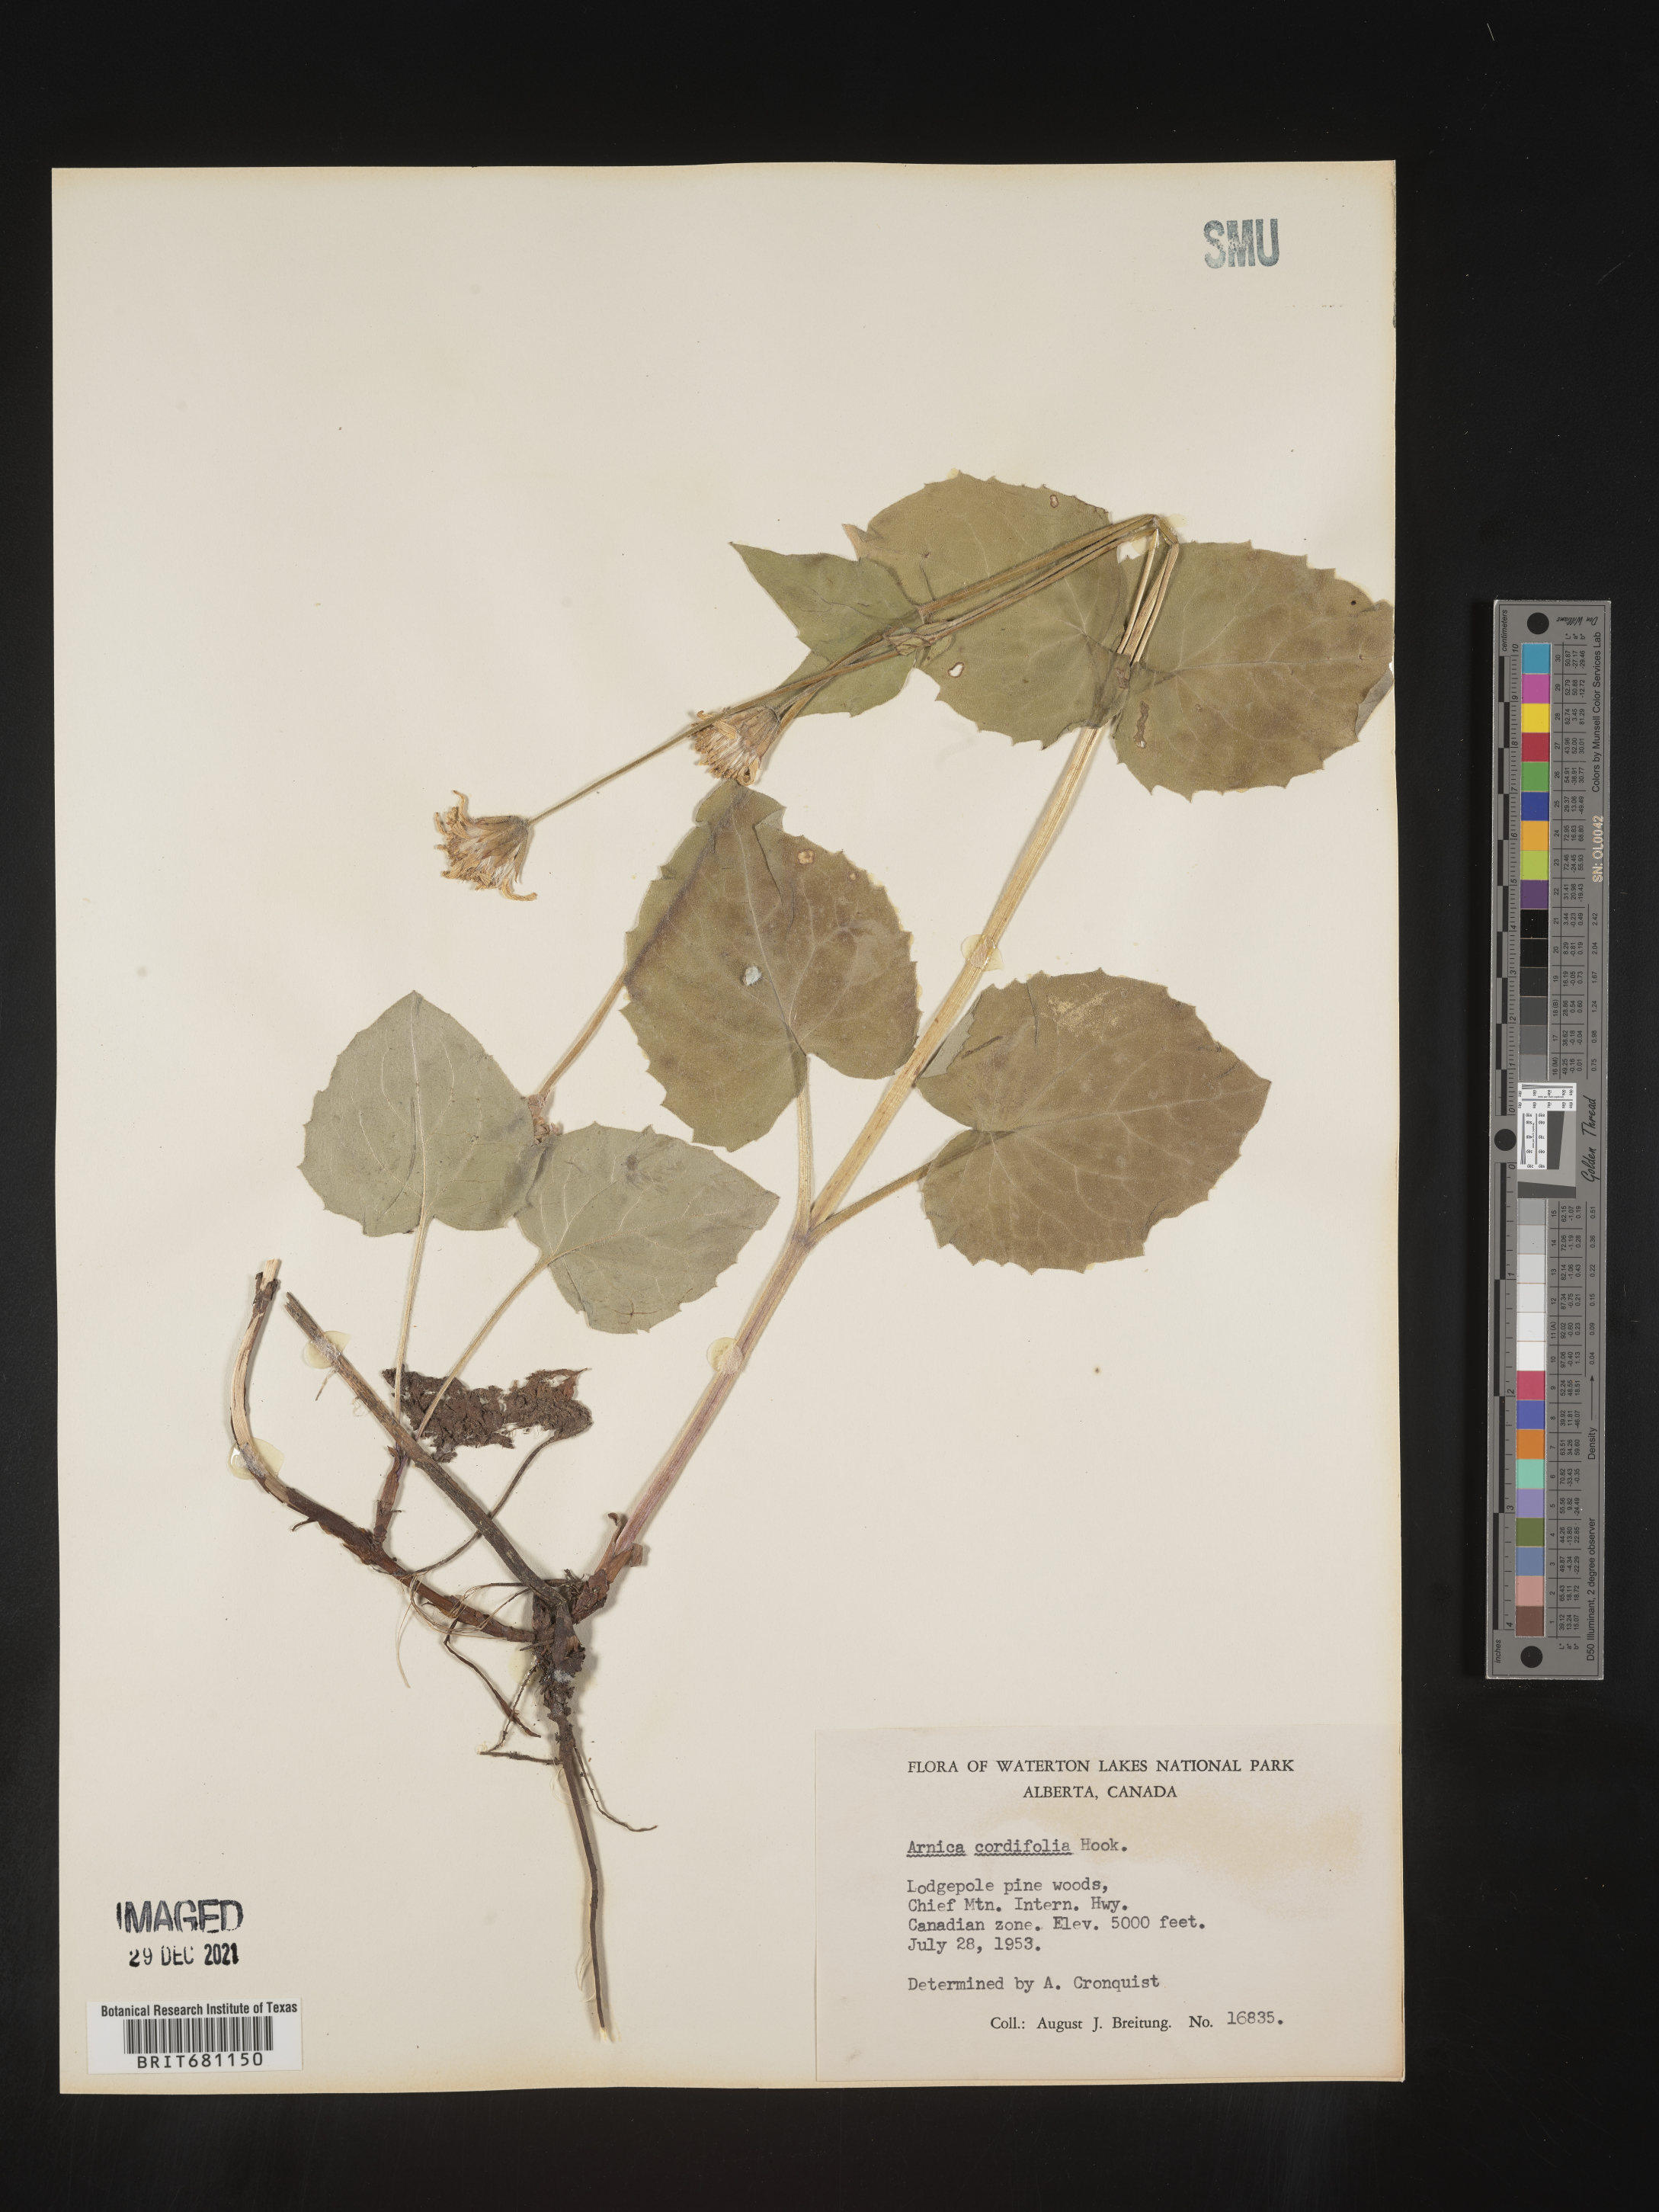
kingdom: Plantae
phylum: Tracheophyta
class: Magnoliopsida
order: Asterales
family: Asteraceae
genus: Arnica
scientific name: Arnica cordifolia
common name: Heart-leaf arnica
